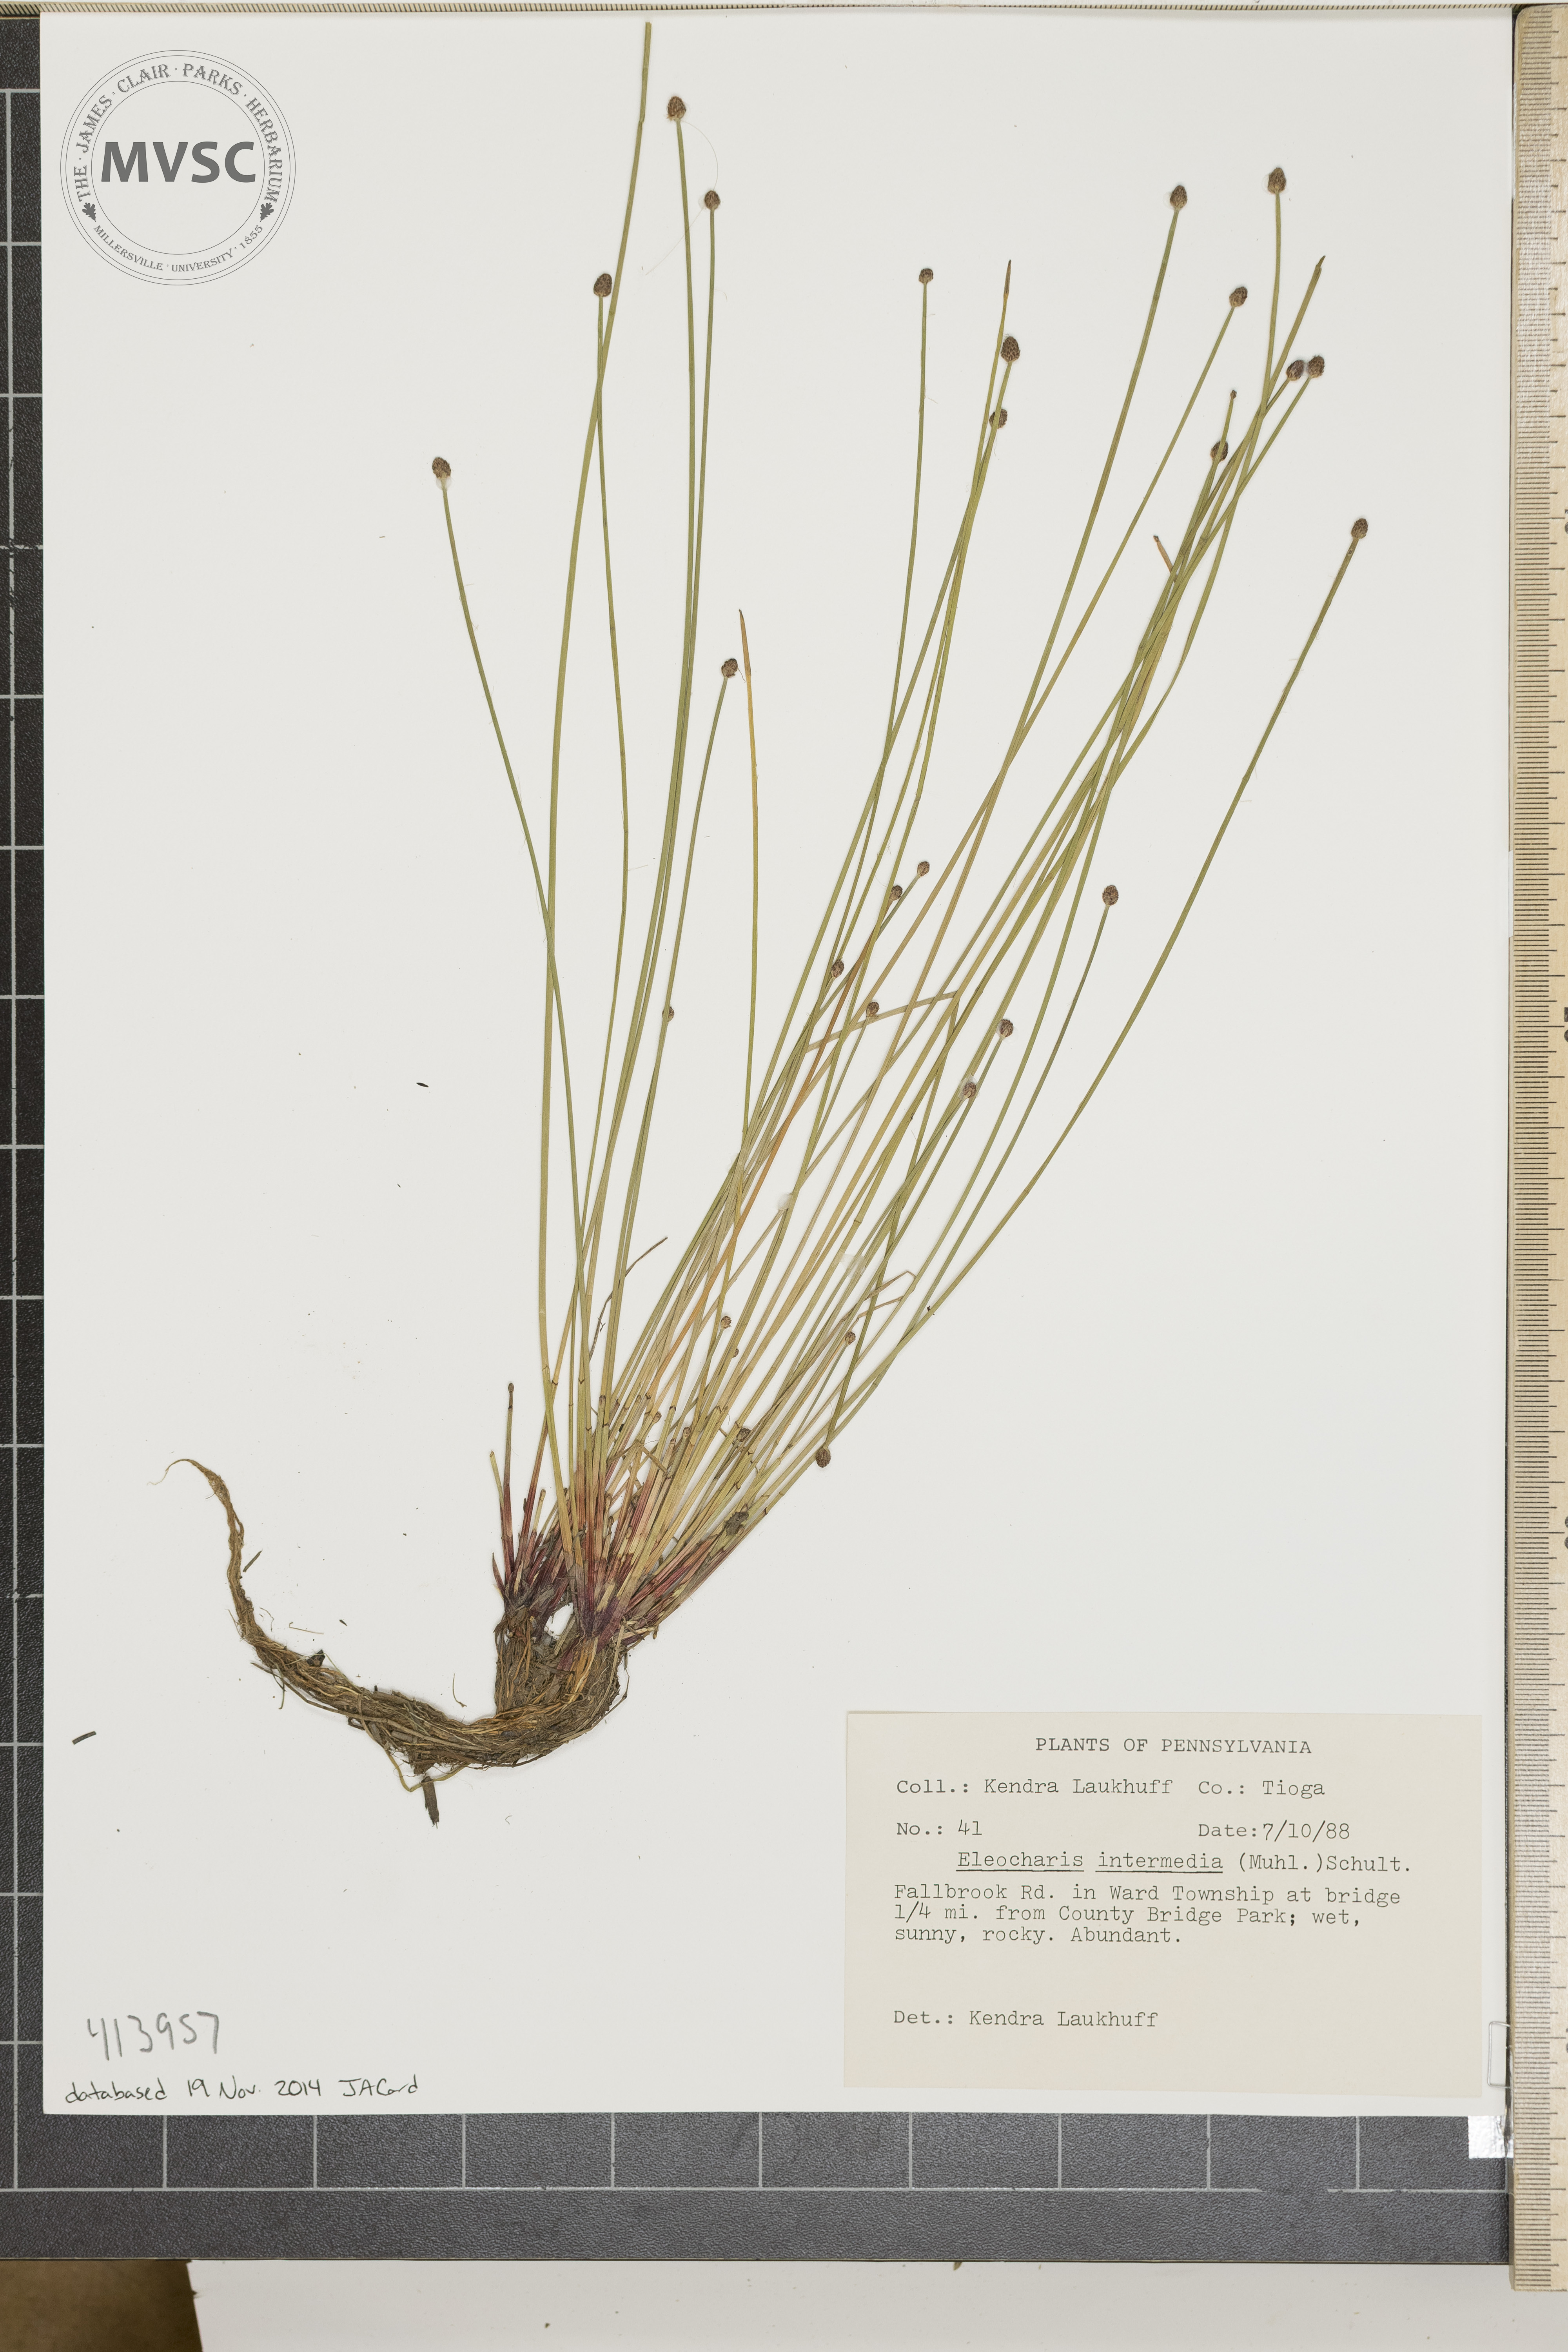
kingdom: Plantae
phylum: Tracheophyta
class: Liliopsida
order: Poales
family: Cyperaceae
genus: Eleocharis
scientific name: Eleocharis intermedia
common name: Intermediate spikerush
